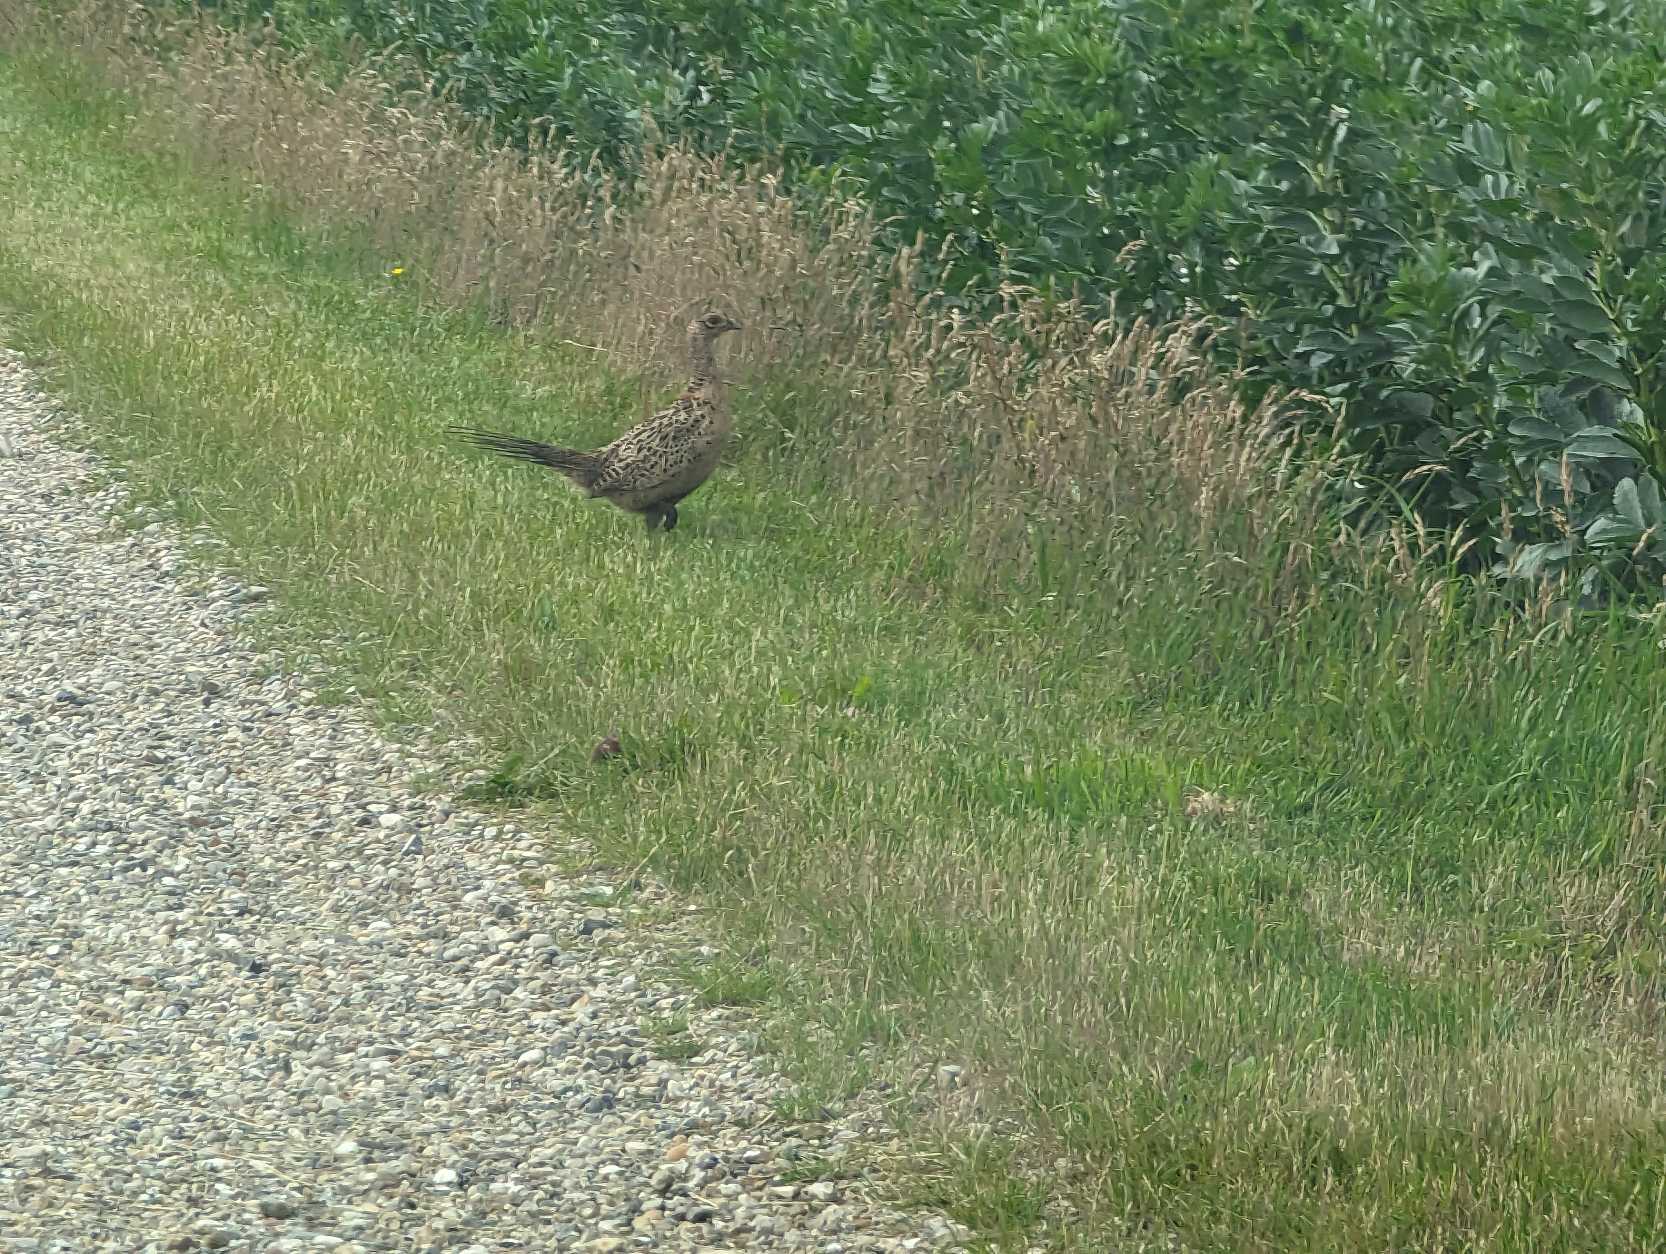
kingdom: Animalia
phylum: Chordata
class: Aves
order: Galliformes
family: Phasianidae
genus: Phasianus
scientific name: Phasianus colchicus
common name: Fasan
